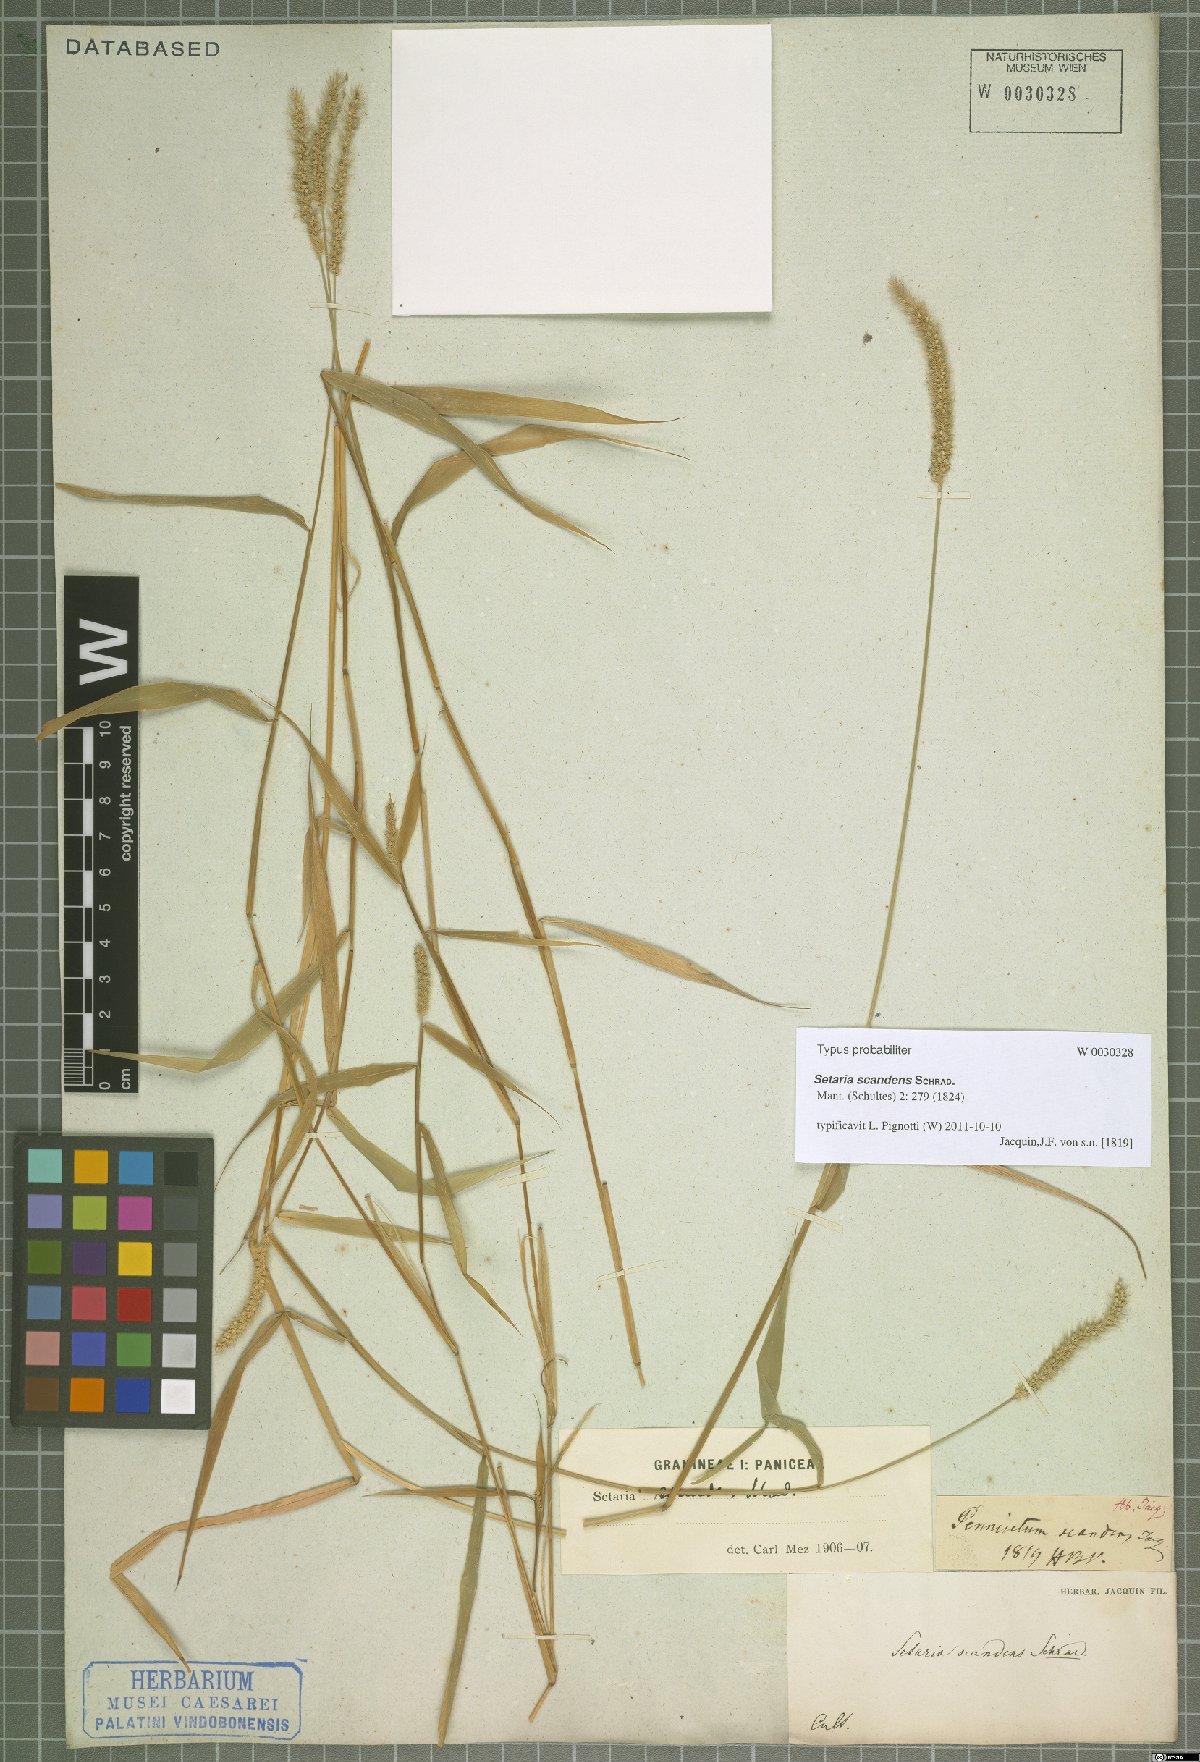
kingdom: Plantae
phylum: Tracheophyta
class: Liliopsida
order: Poales
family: Poaceae
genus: Setaria
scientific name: Setaria scandens
